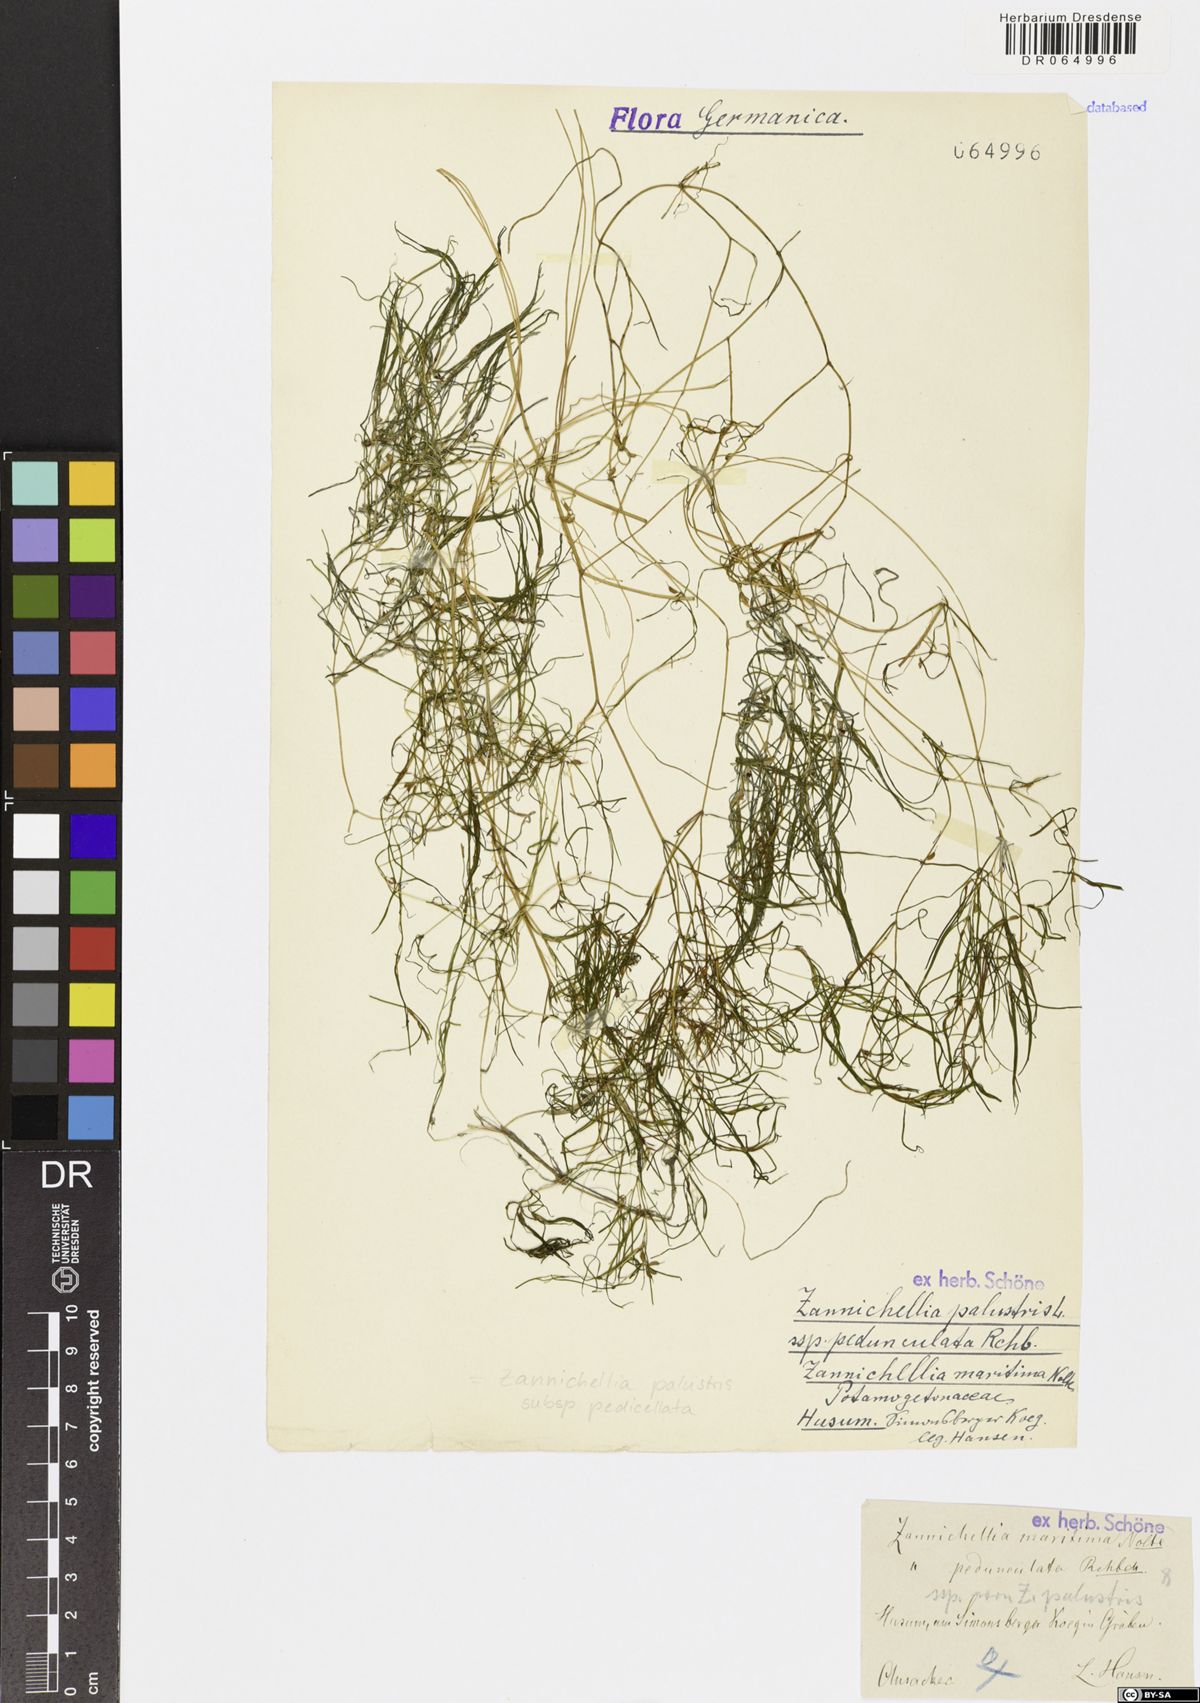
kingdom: Plantae
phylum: Tracheophyta
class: Liliopsida
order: Alismatales
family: Potamogetonaceae
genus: Zannichellia
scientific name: Zannichellia palustris
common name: Horned pondweed
